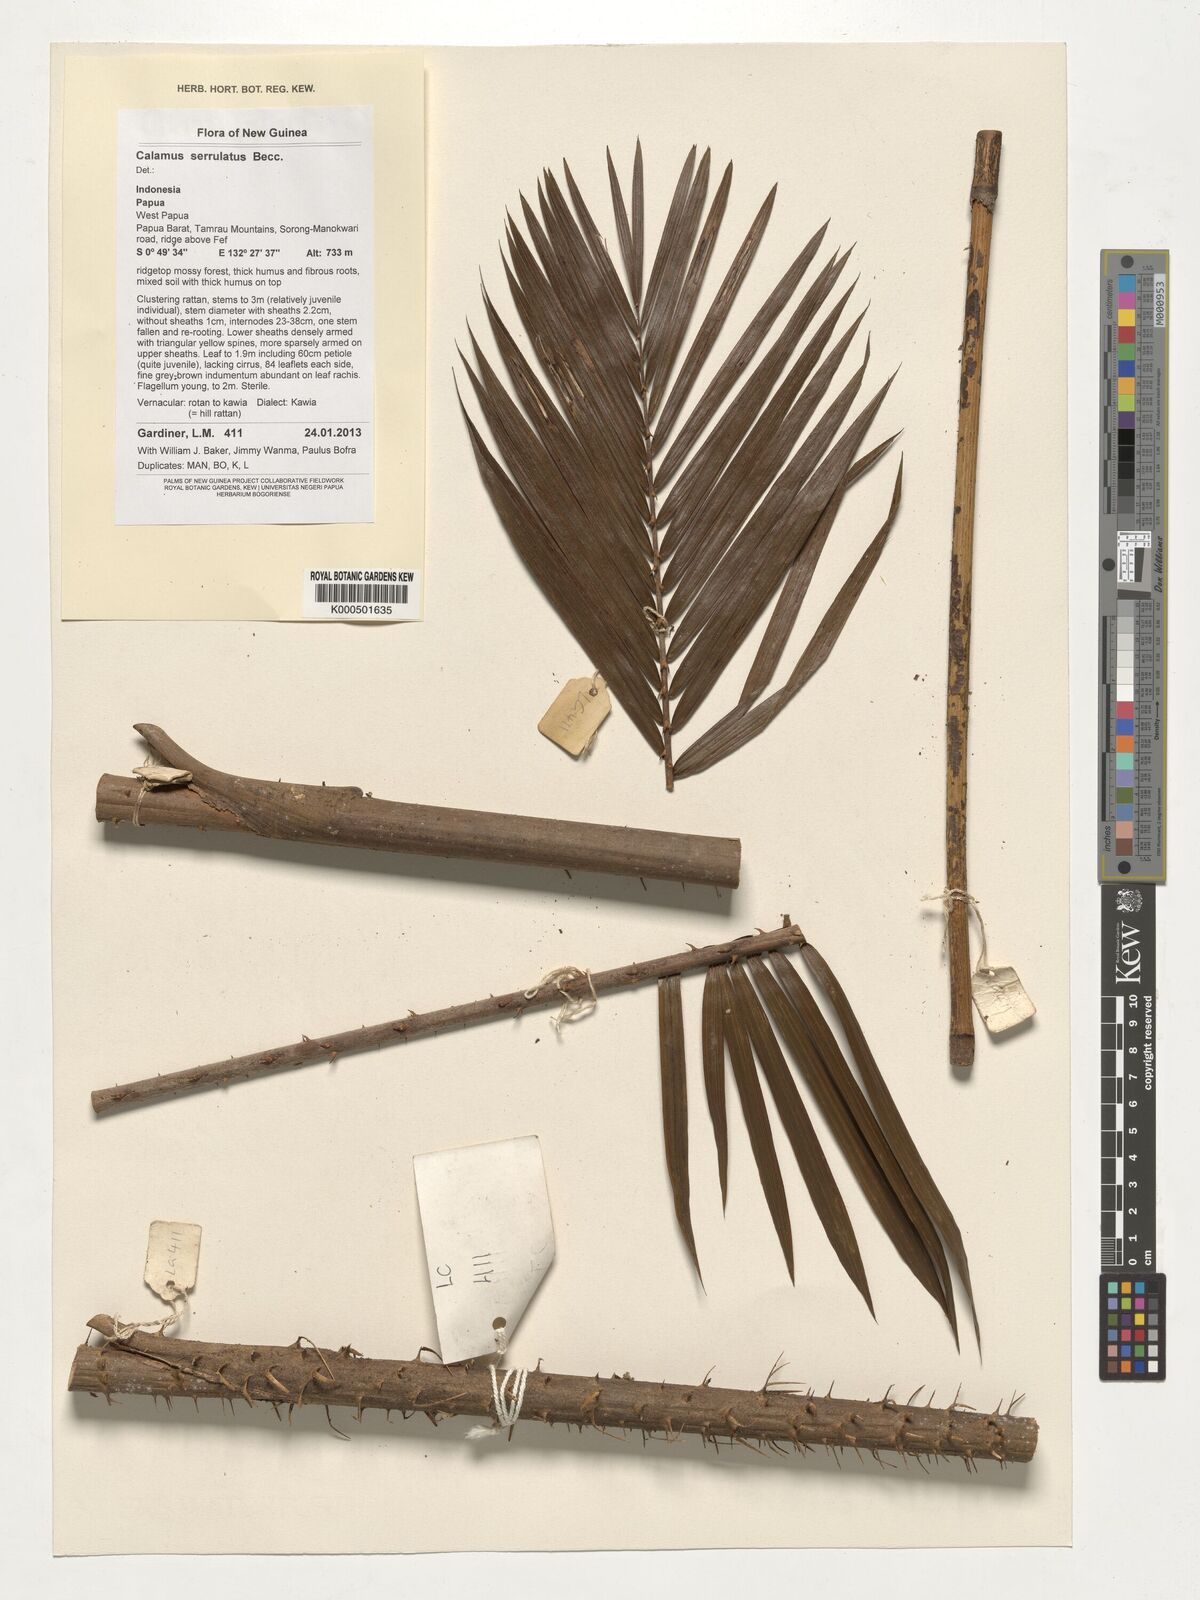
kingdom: Plantae
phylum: Tracheophyta
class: Liliopsida
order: Arecales
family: Arecaceae
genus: Calamus
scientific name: Calamus serrulatus
